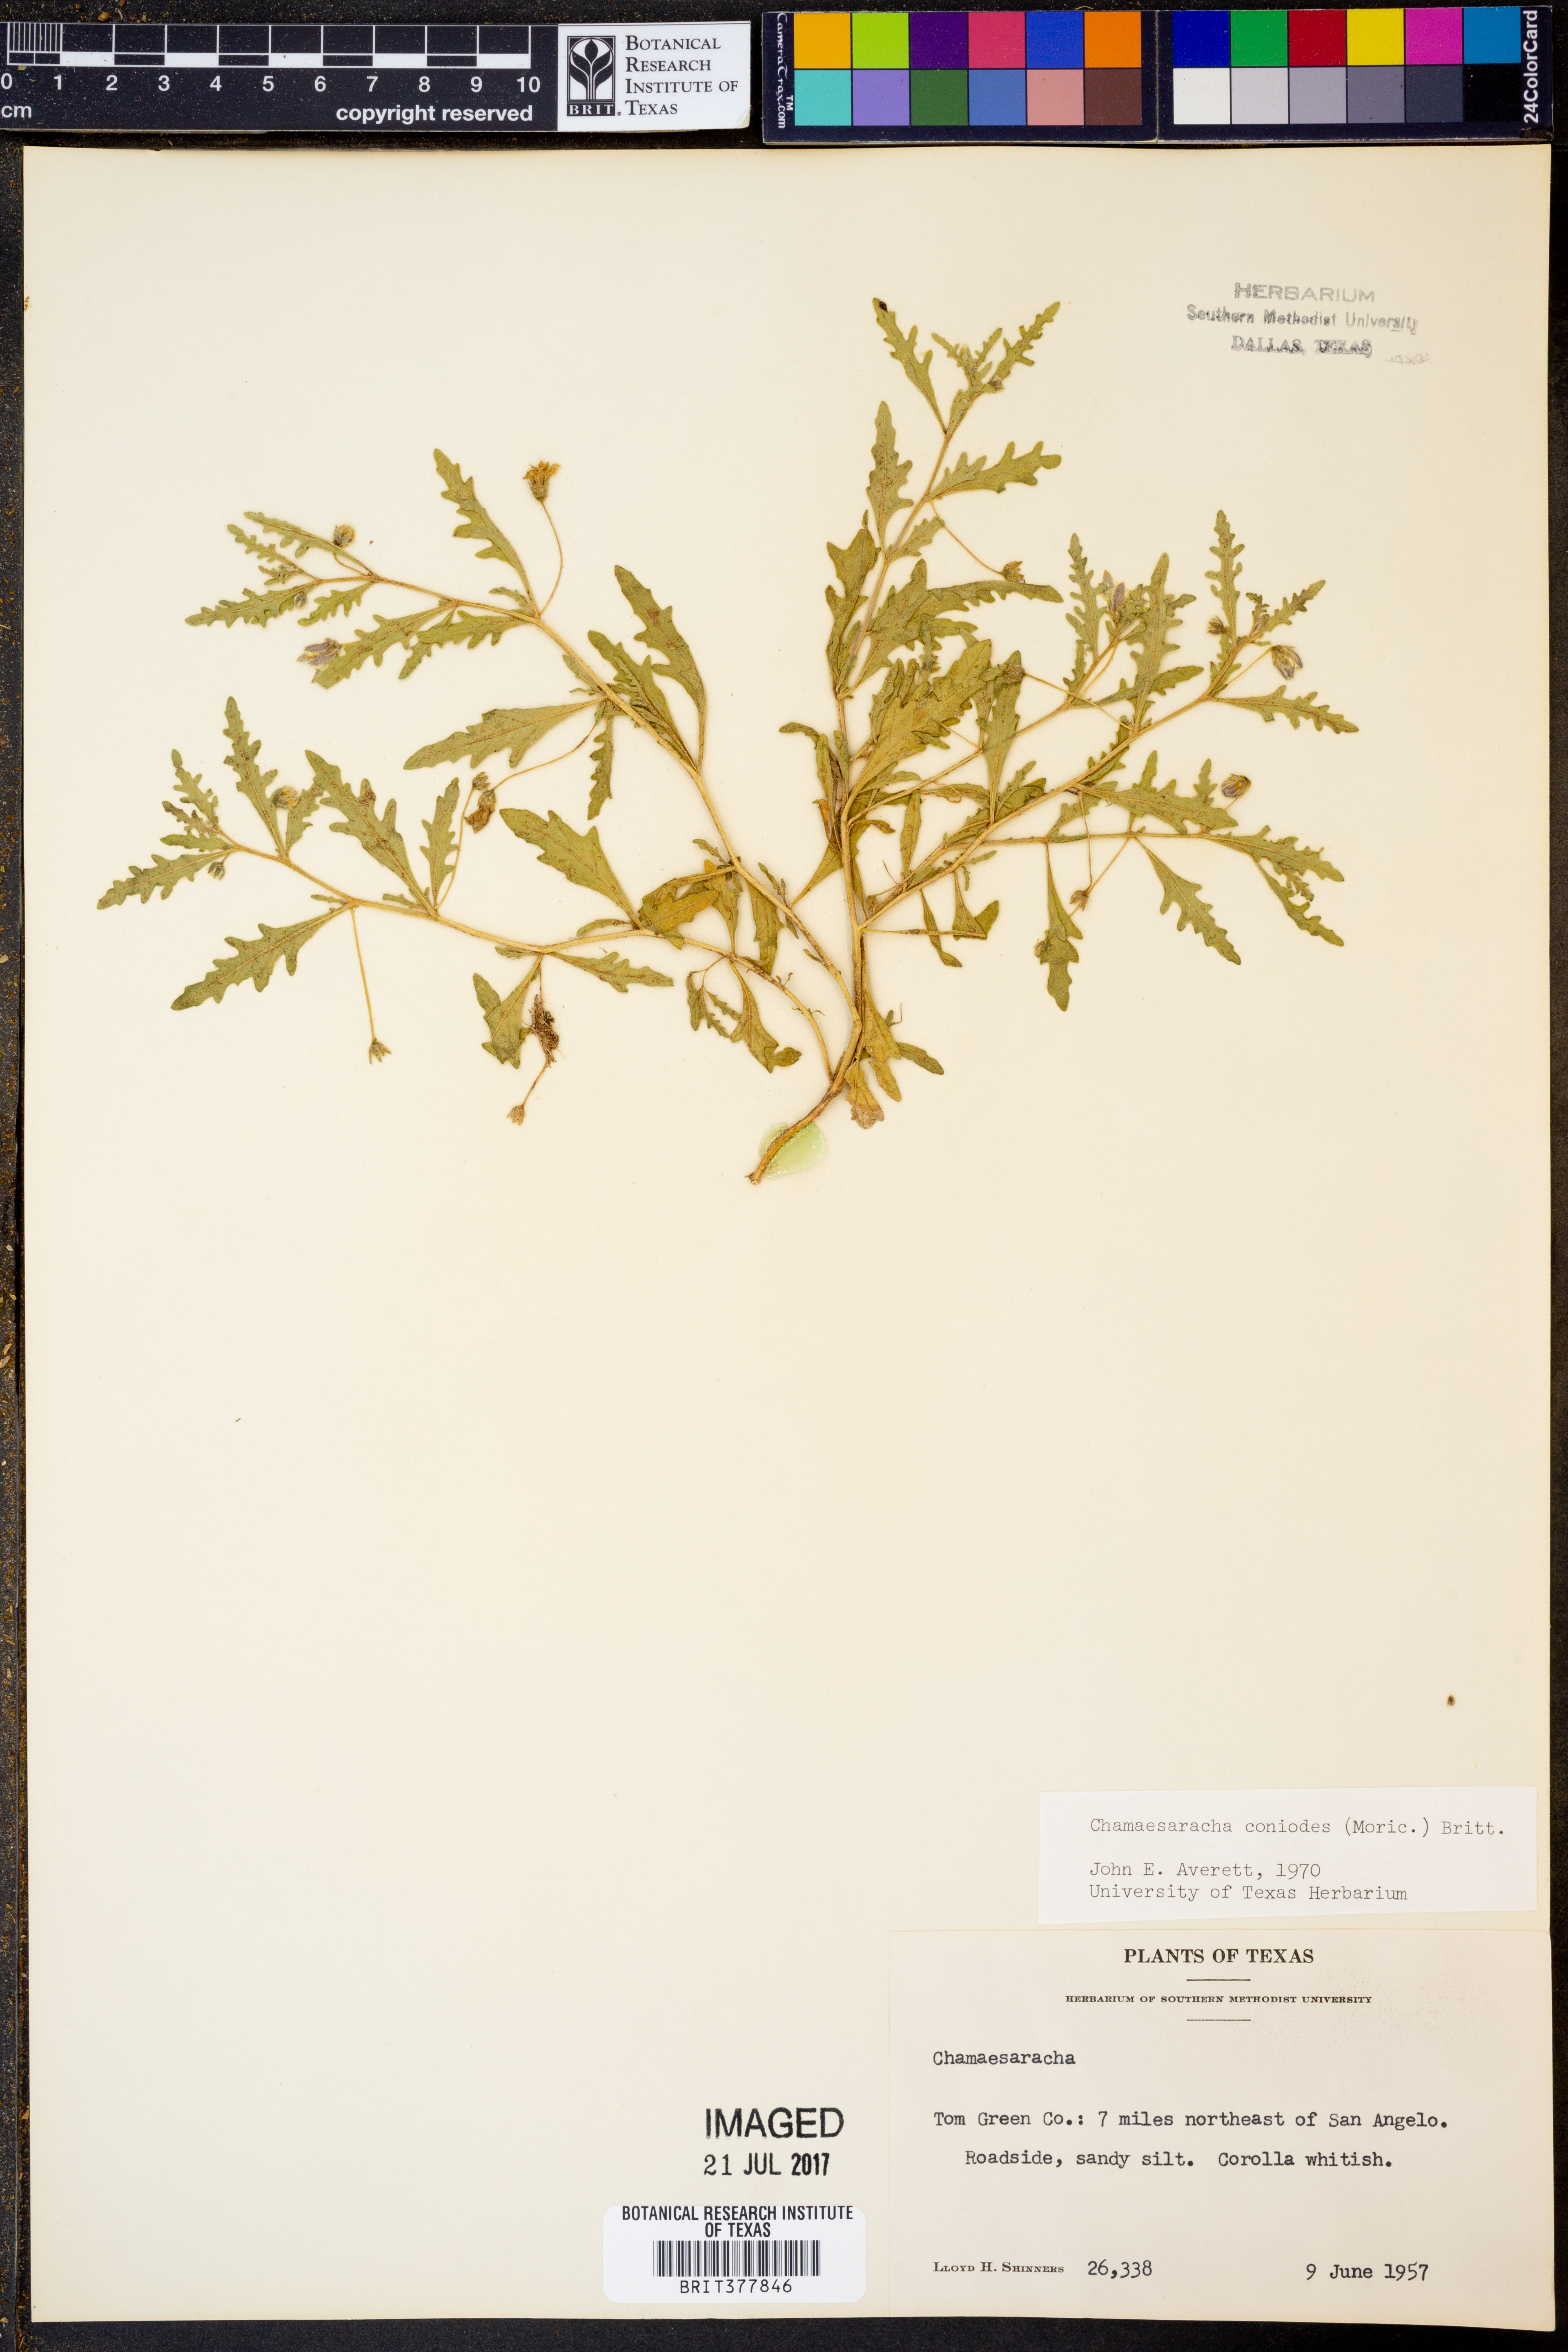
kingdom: Plantae
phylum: Tracheophyta
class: Magnoliopsida
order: Solanales
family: Solanaceae
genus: Chamaesaracha
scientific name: Chamaesaracha coniodes
